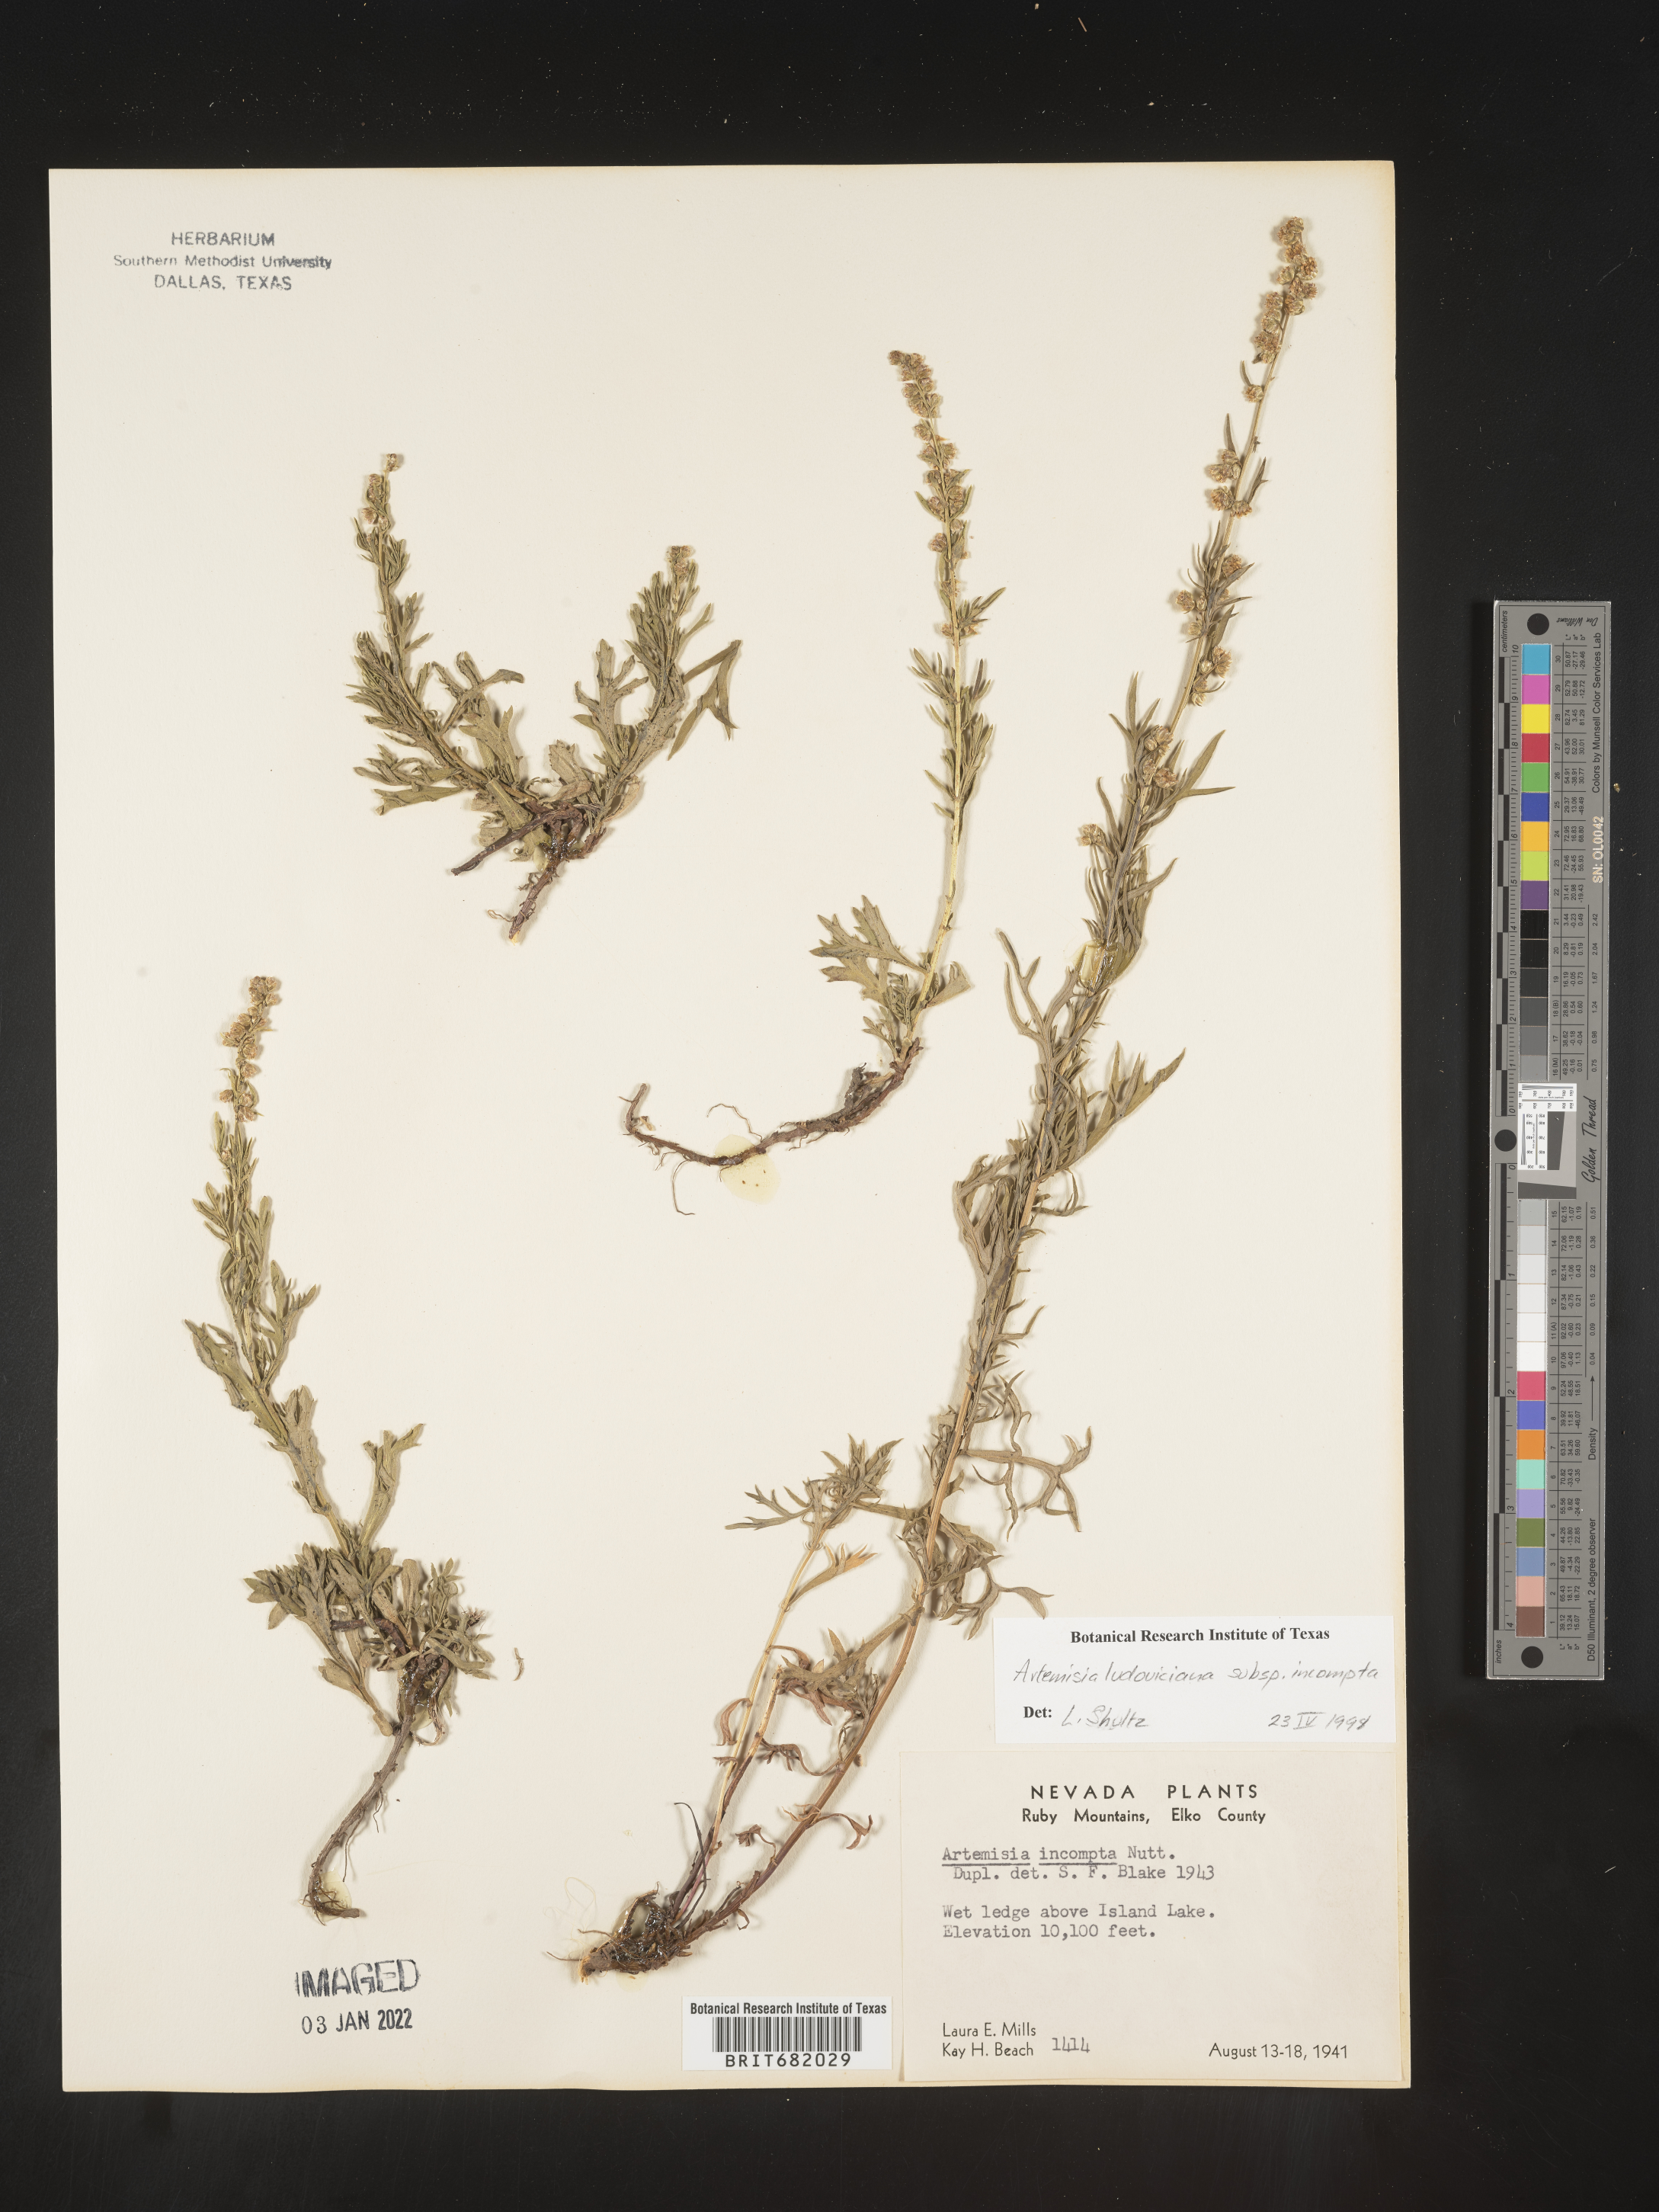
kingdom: Plantae
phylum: Tracheophyta
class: Magnoliopsida
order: Asterales
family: Asteraceae
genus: Artemisia
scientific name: Artemisia ludoviciana
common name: Western mugwort
